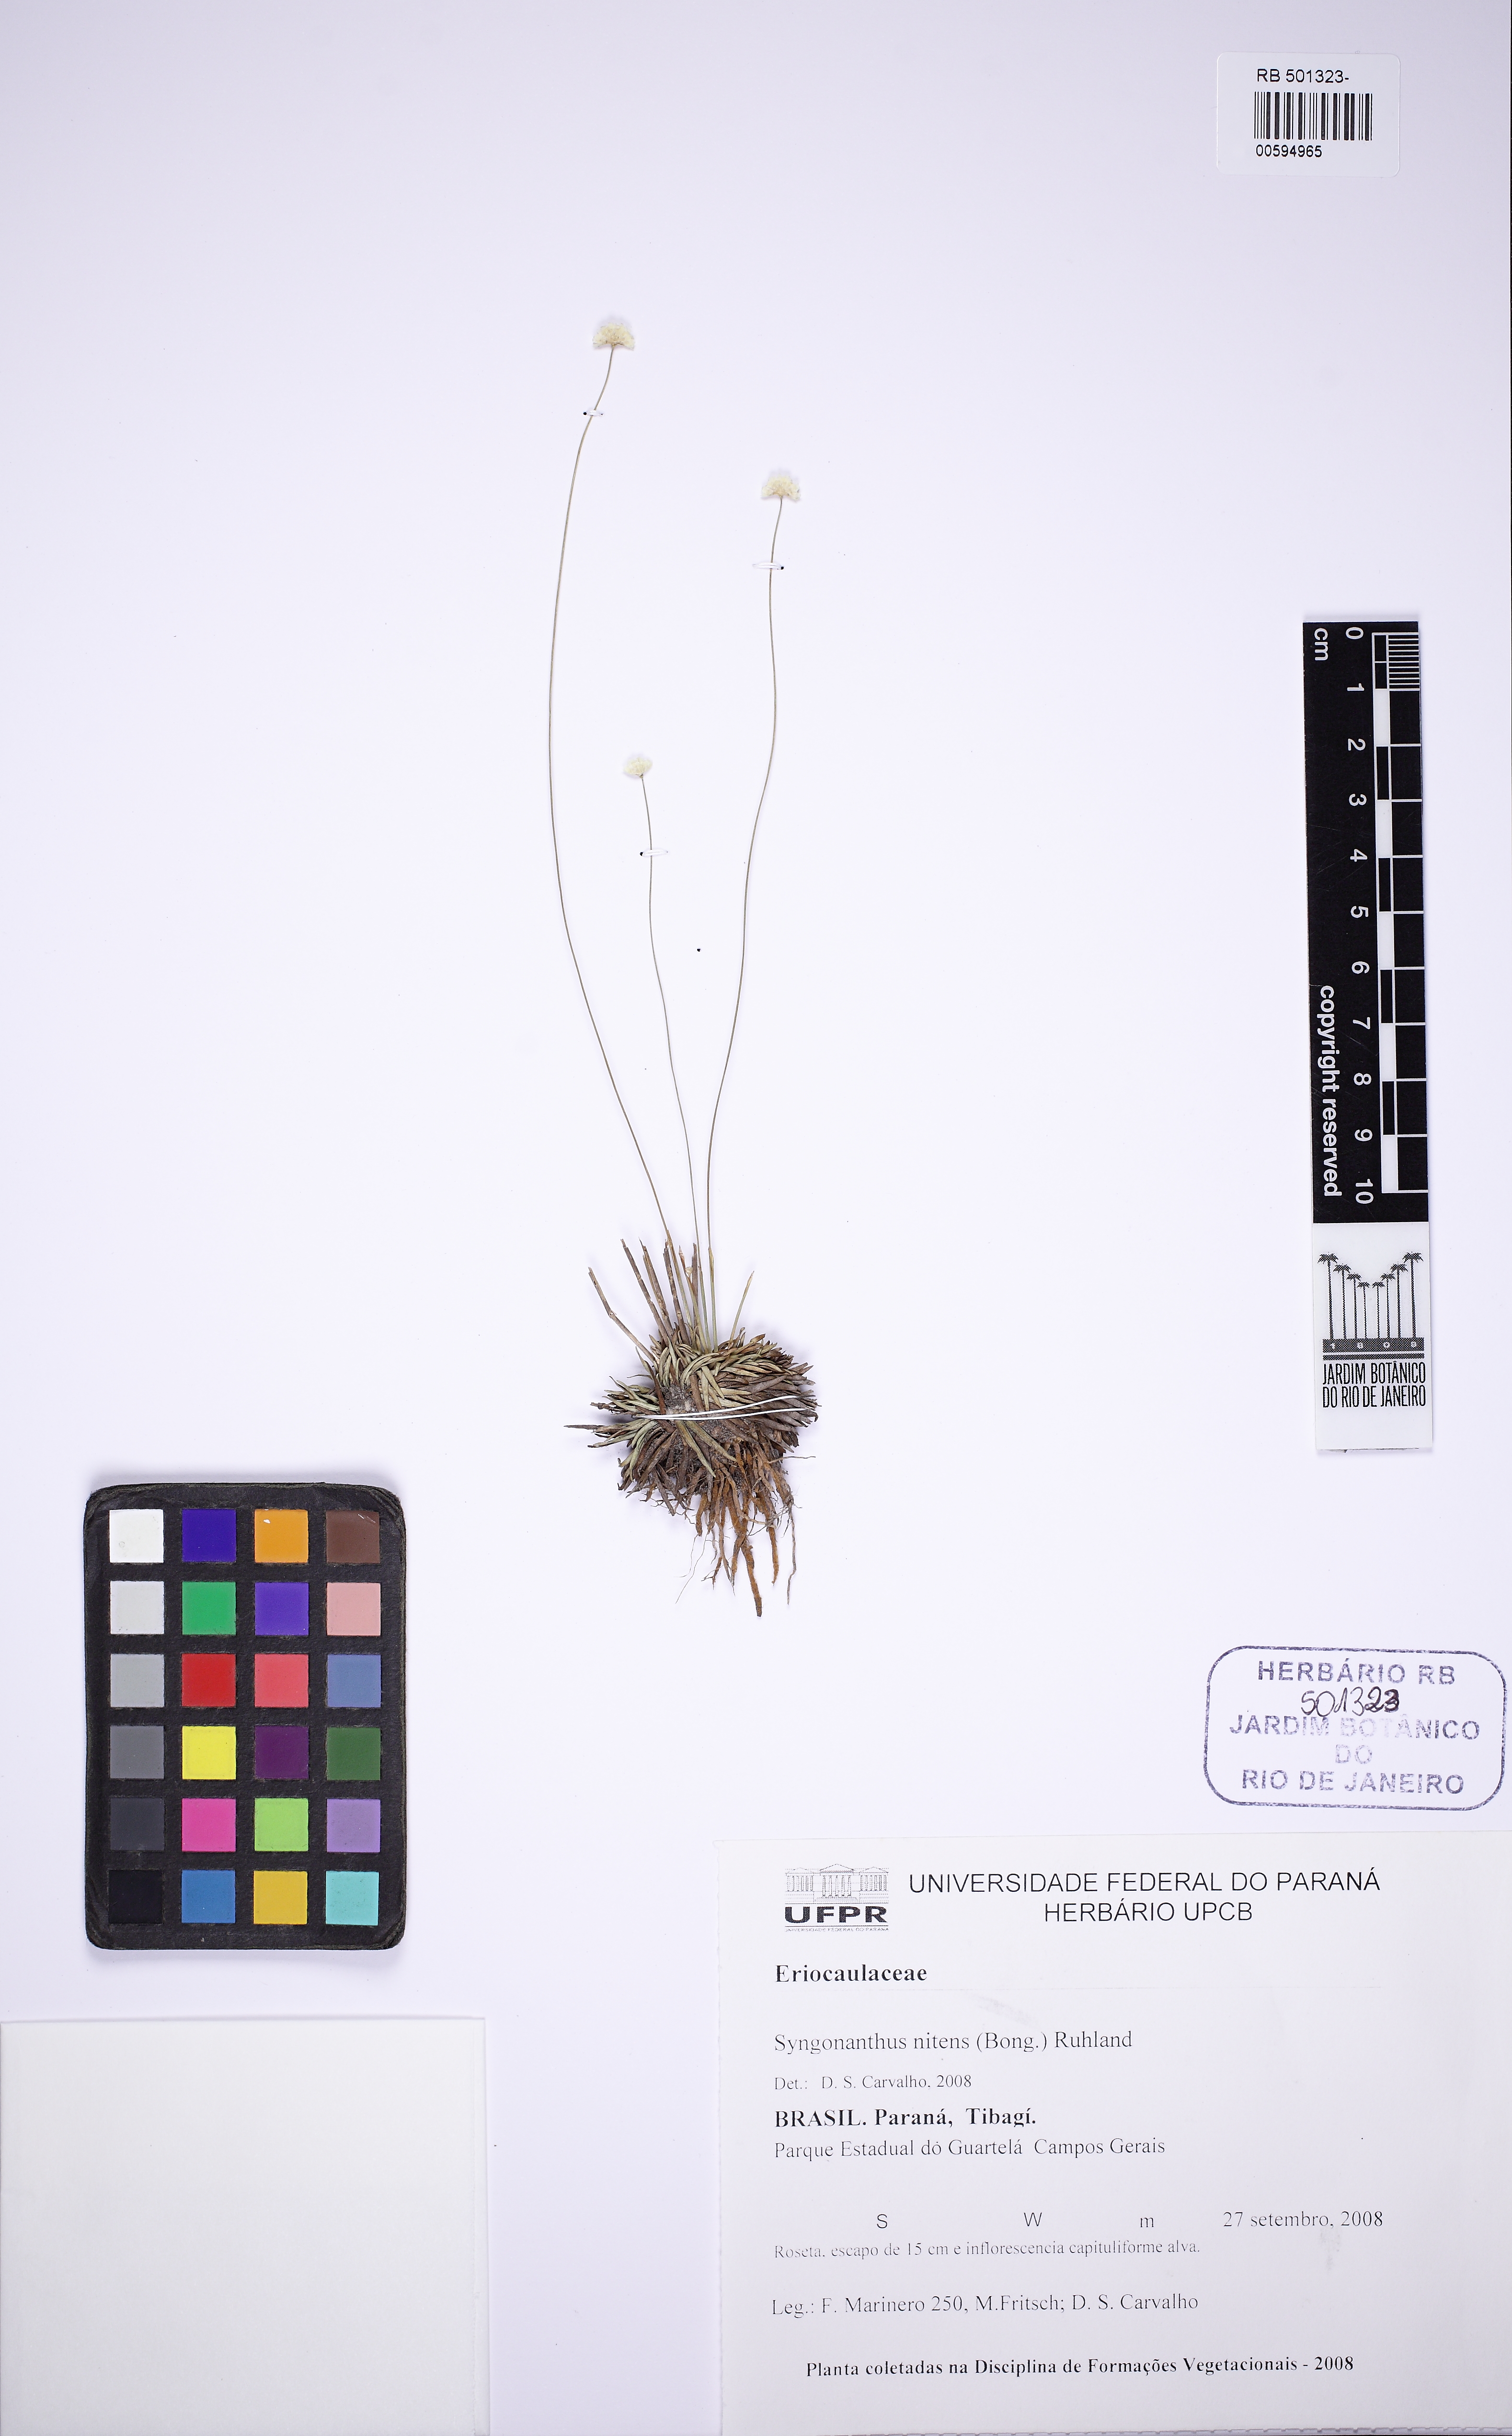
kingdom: Plantae
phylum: Tracheophyta
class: Liliopsida
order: Poales
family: Eriocaulaceae
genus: Syngonanthus
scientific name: Syngonanthus nitens
